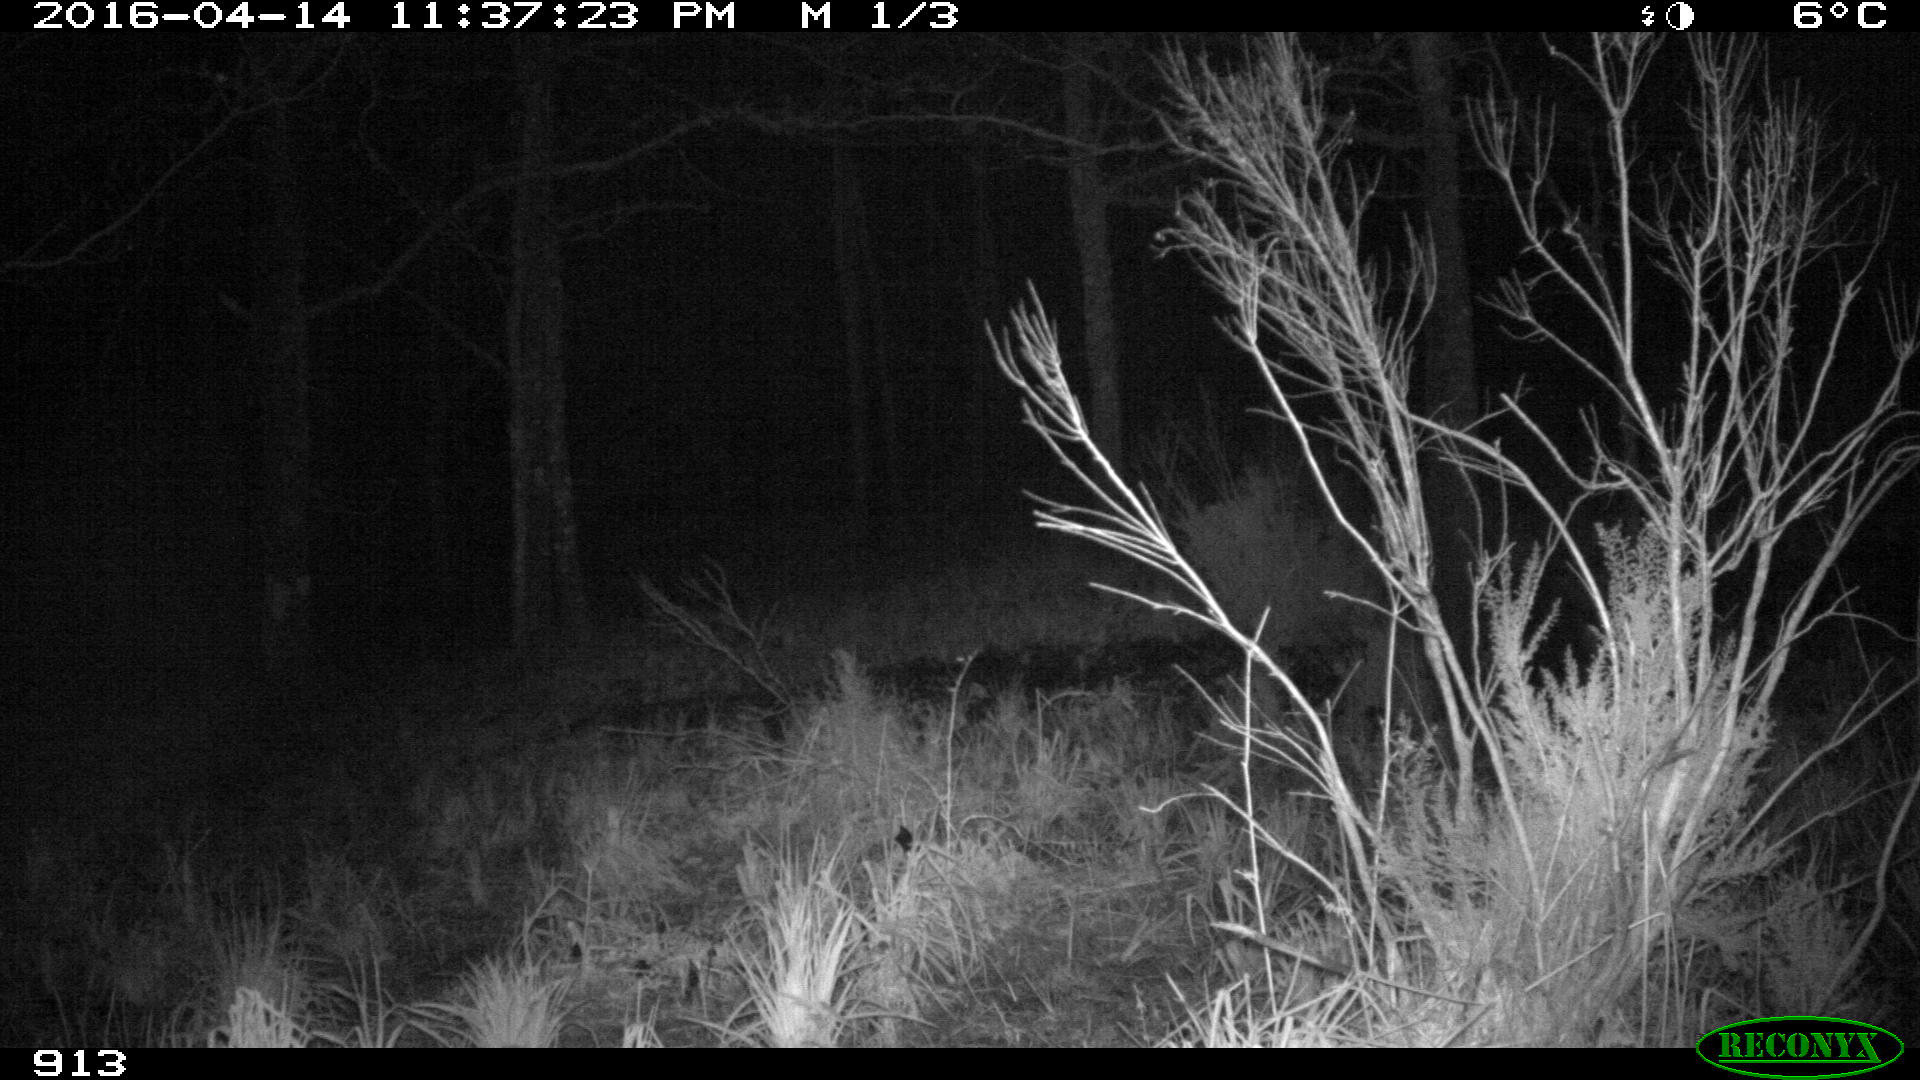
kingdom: Animalia
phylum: Chordata
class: Mammalia
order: Artiodactyla
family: Suidae
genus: Sus
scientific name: Sus scrofa
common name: Wild boar
